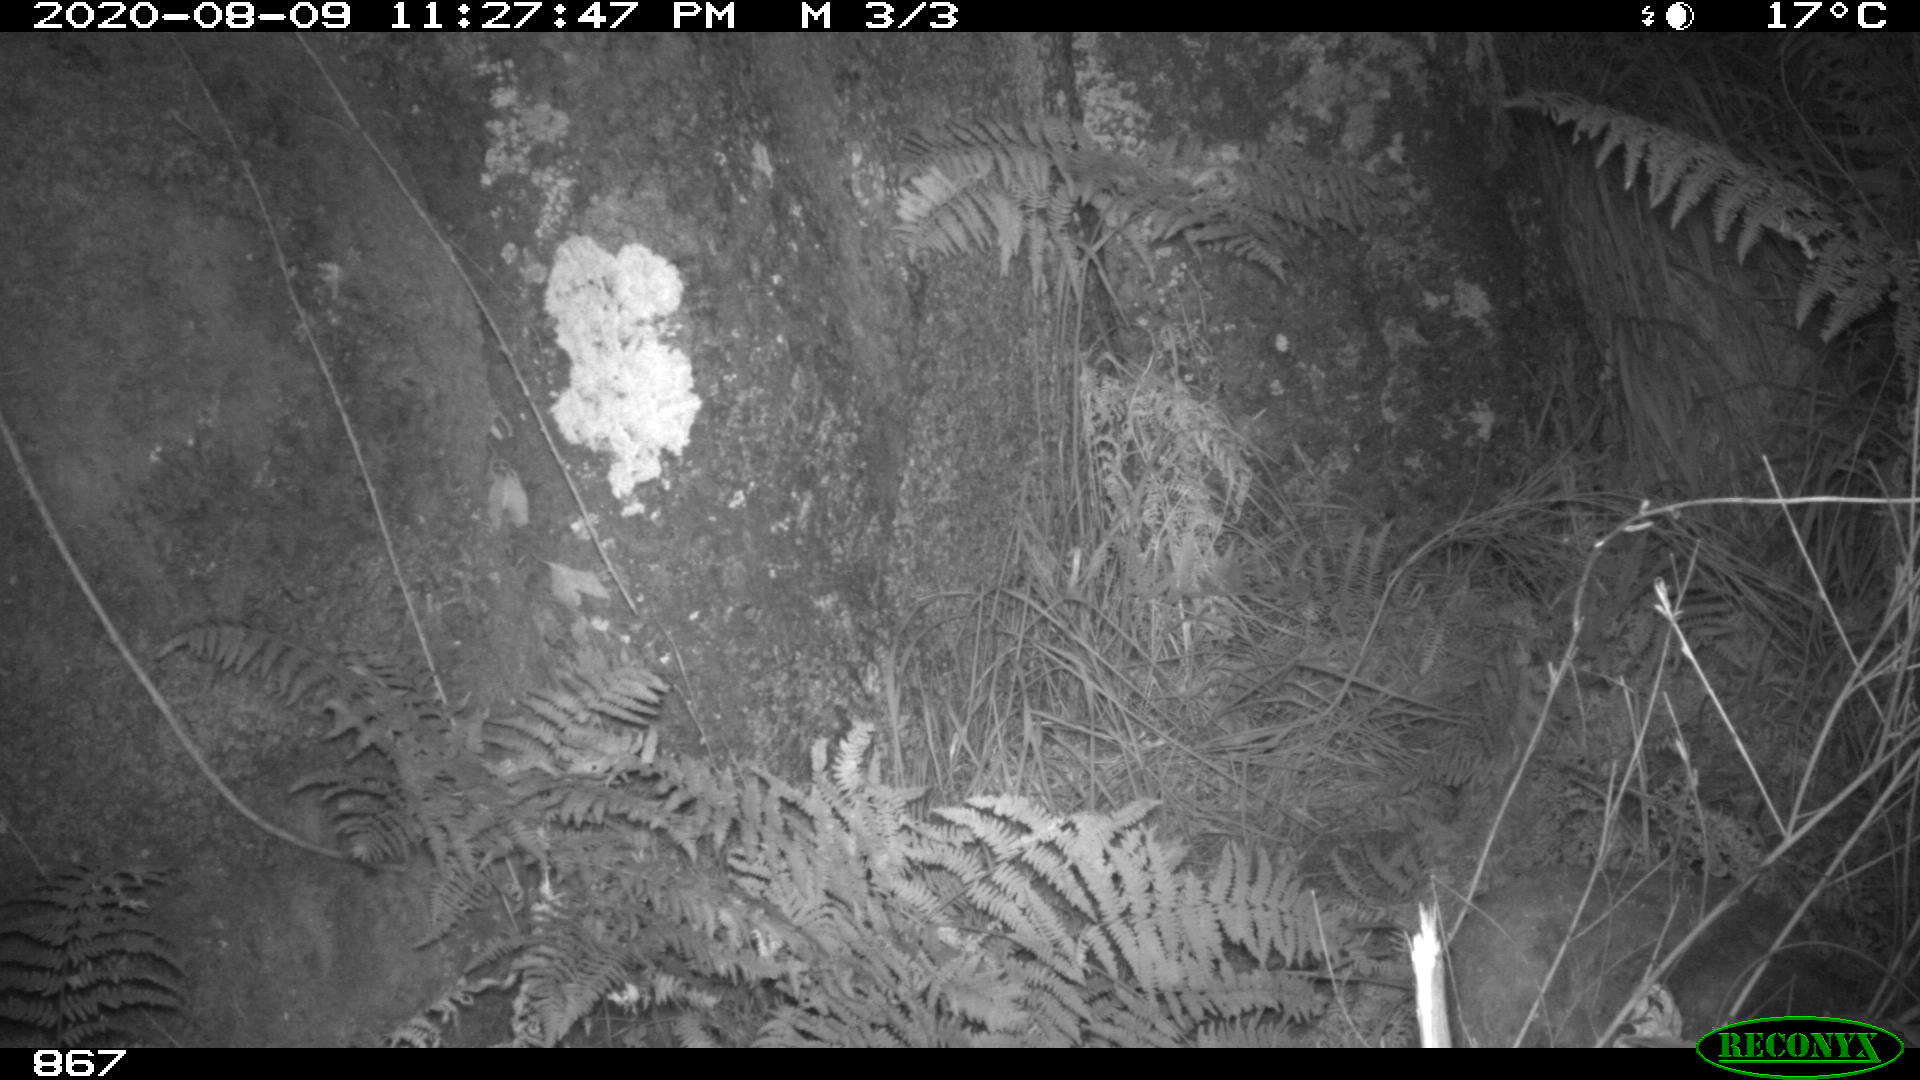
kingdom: Animalia
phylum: Chordata
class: Mammalia
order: Artiodactyla
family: Suidae
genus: Sus
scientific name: Sus scrofa
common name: Wild boar
